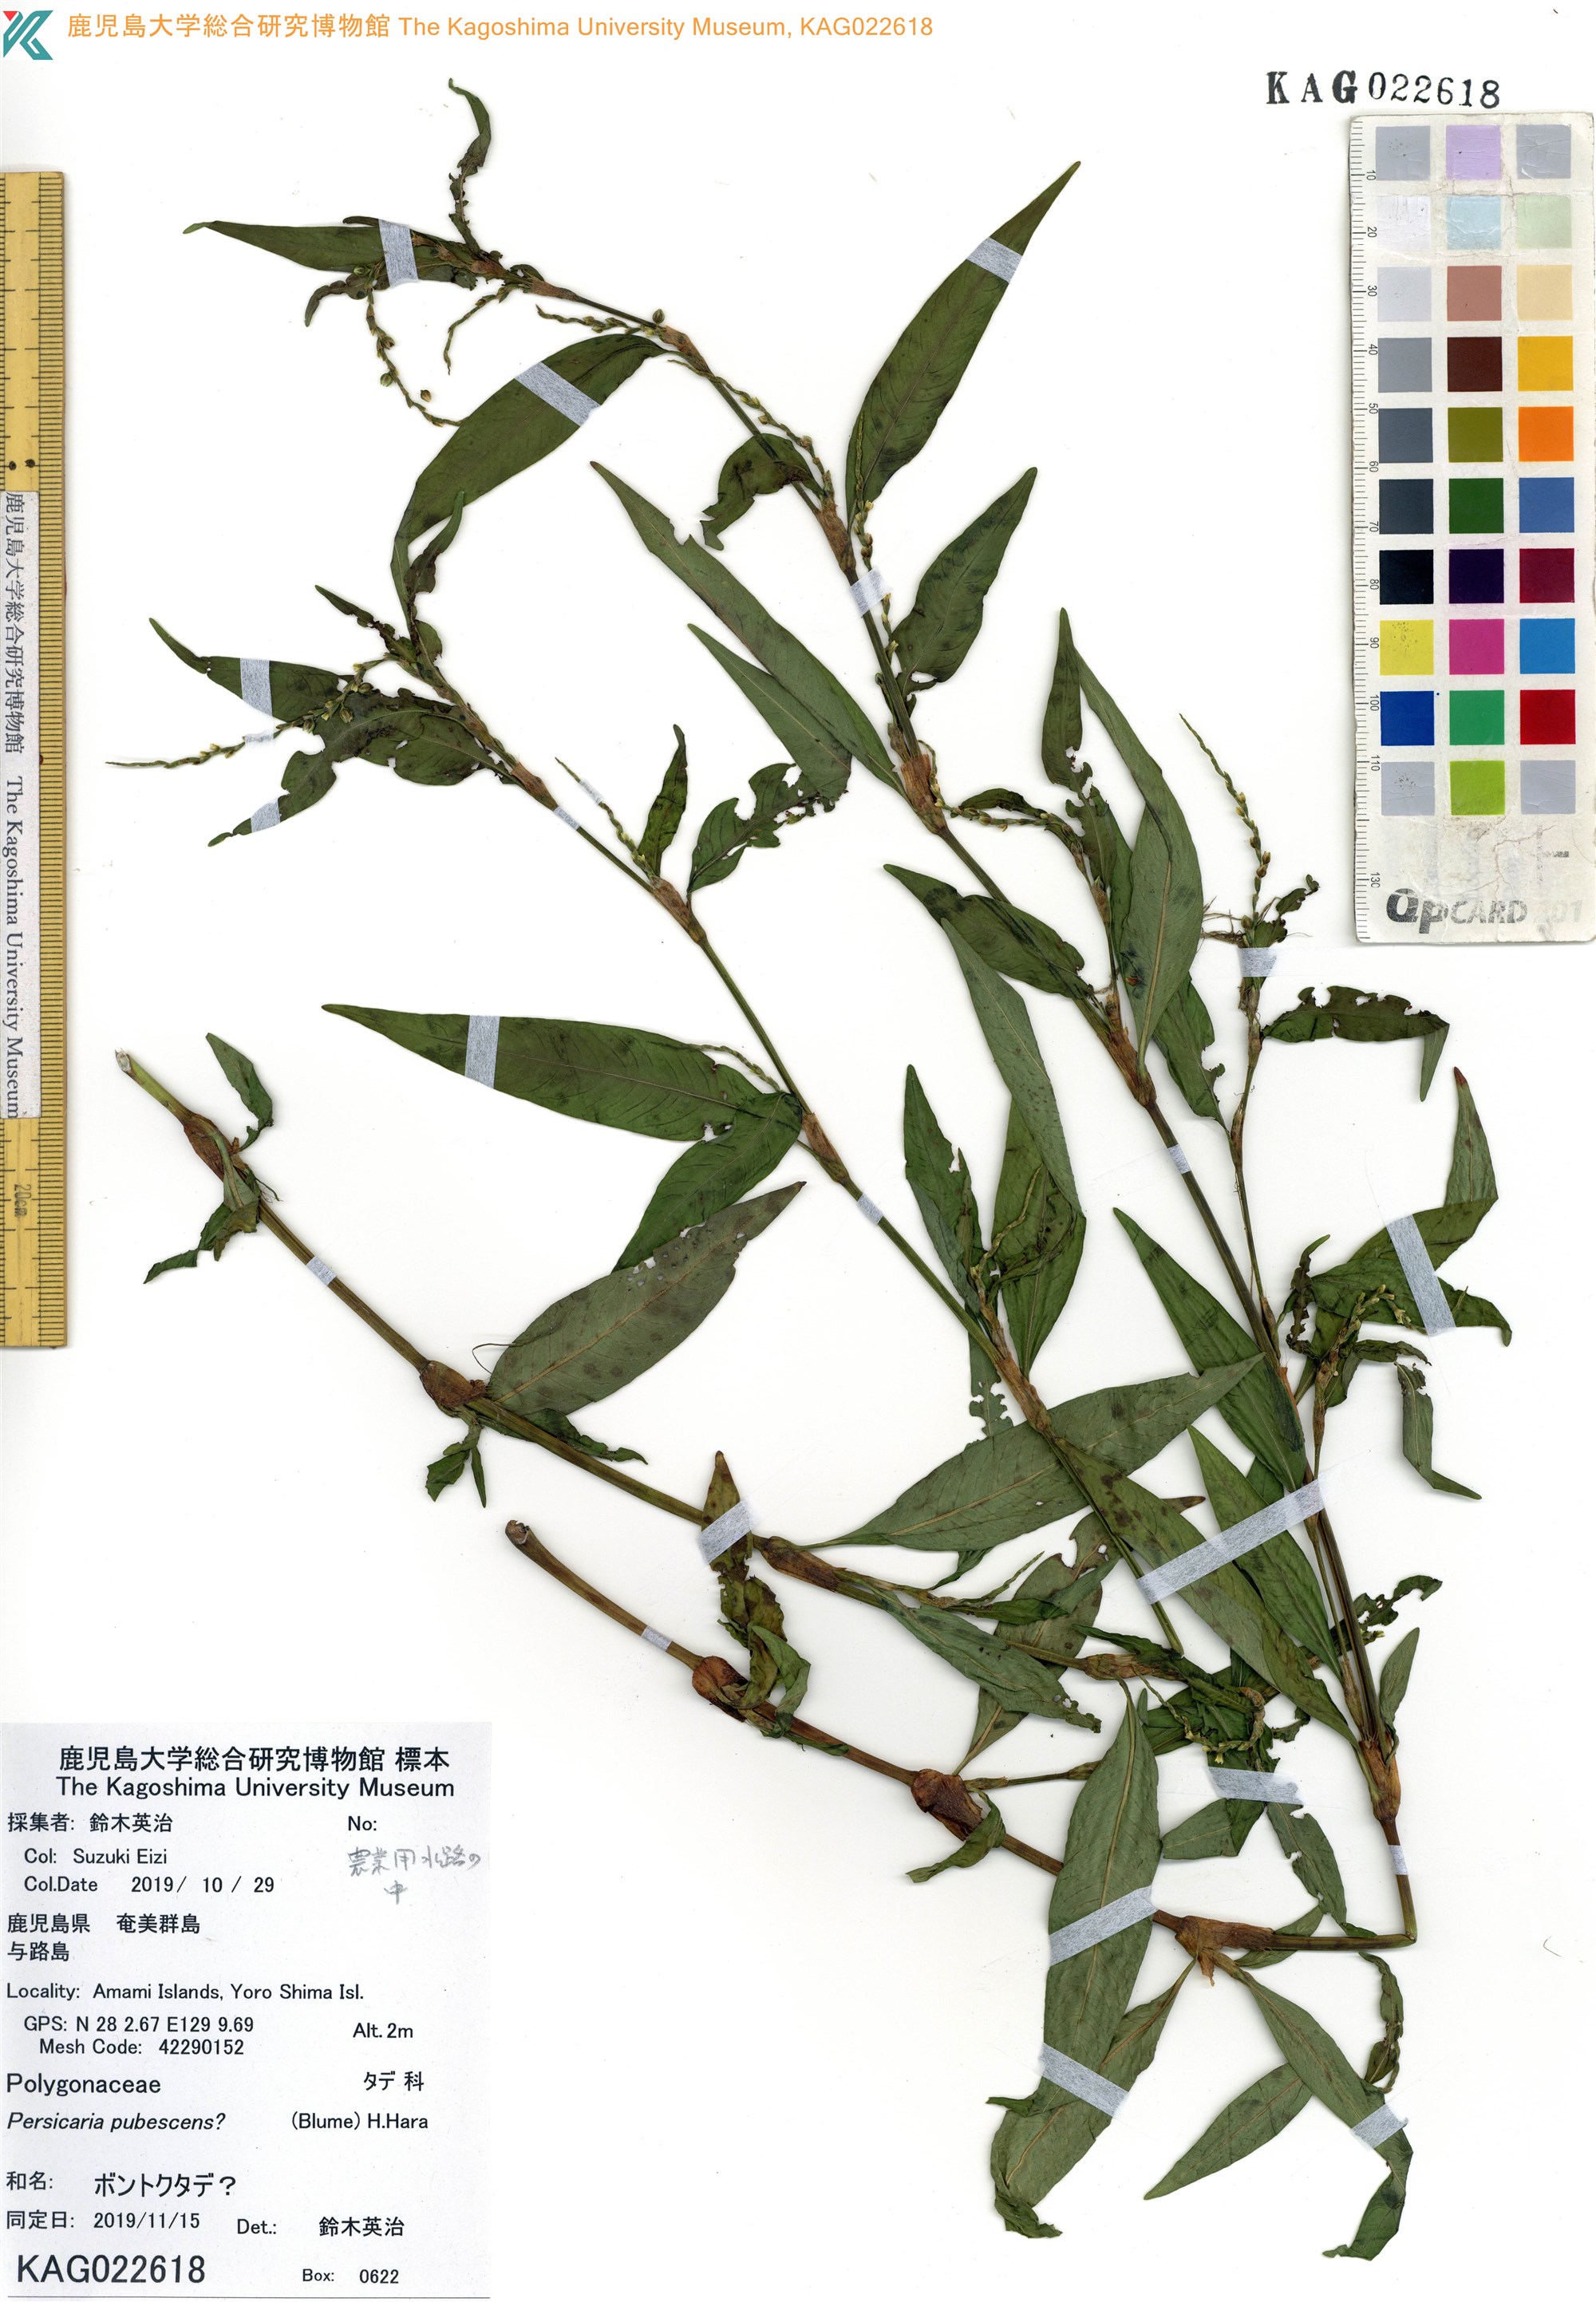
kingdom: Plantae
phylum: Tracheophyta
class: Magnoliopsida
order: Caryophyllales
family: Polygonaceae
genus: Persicaria
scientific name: Persicaria
